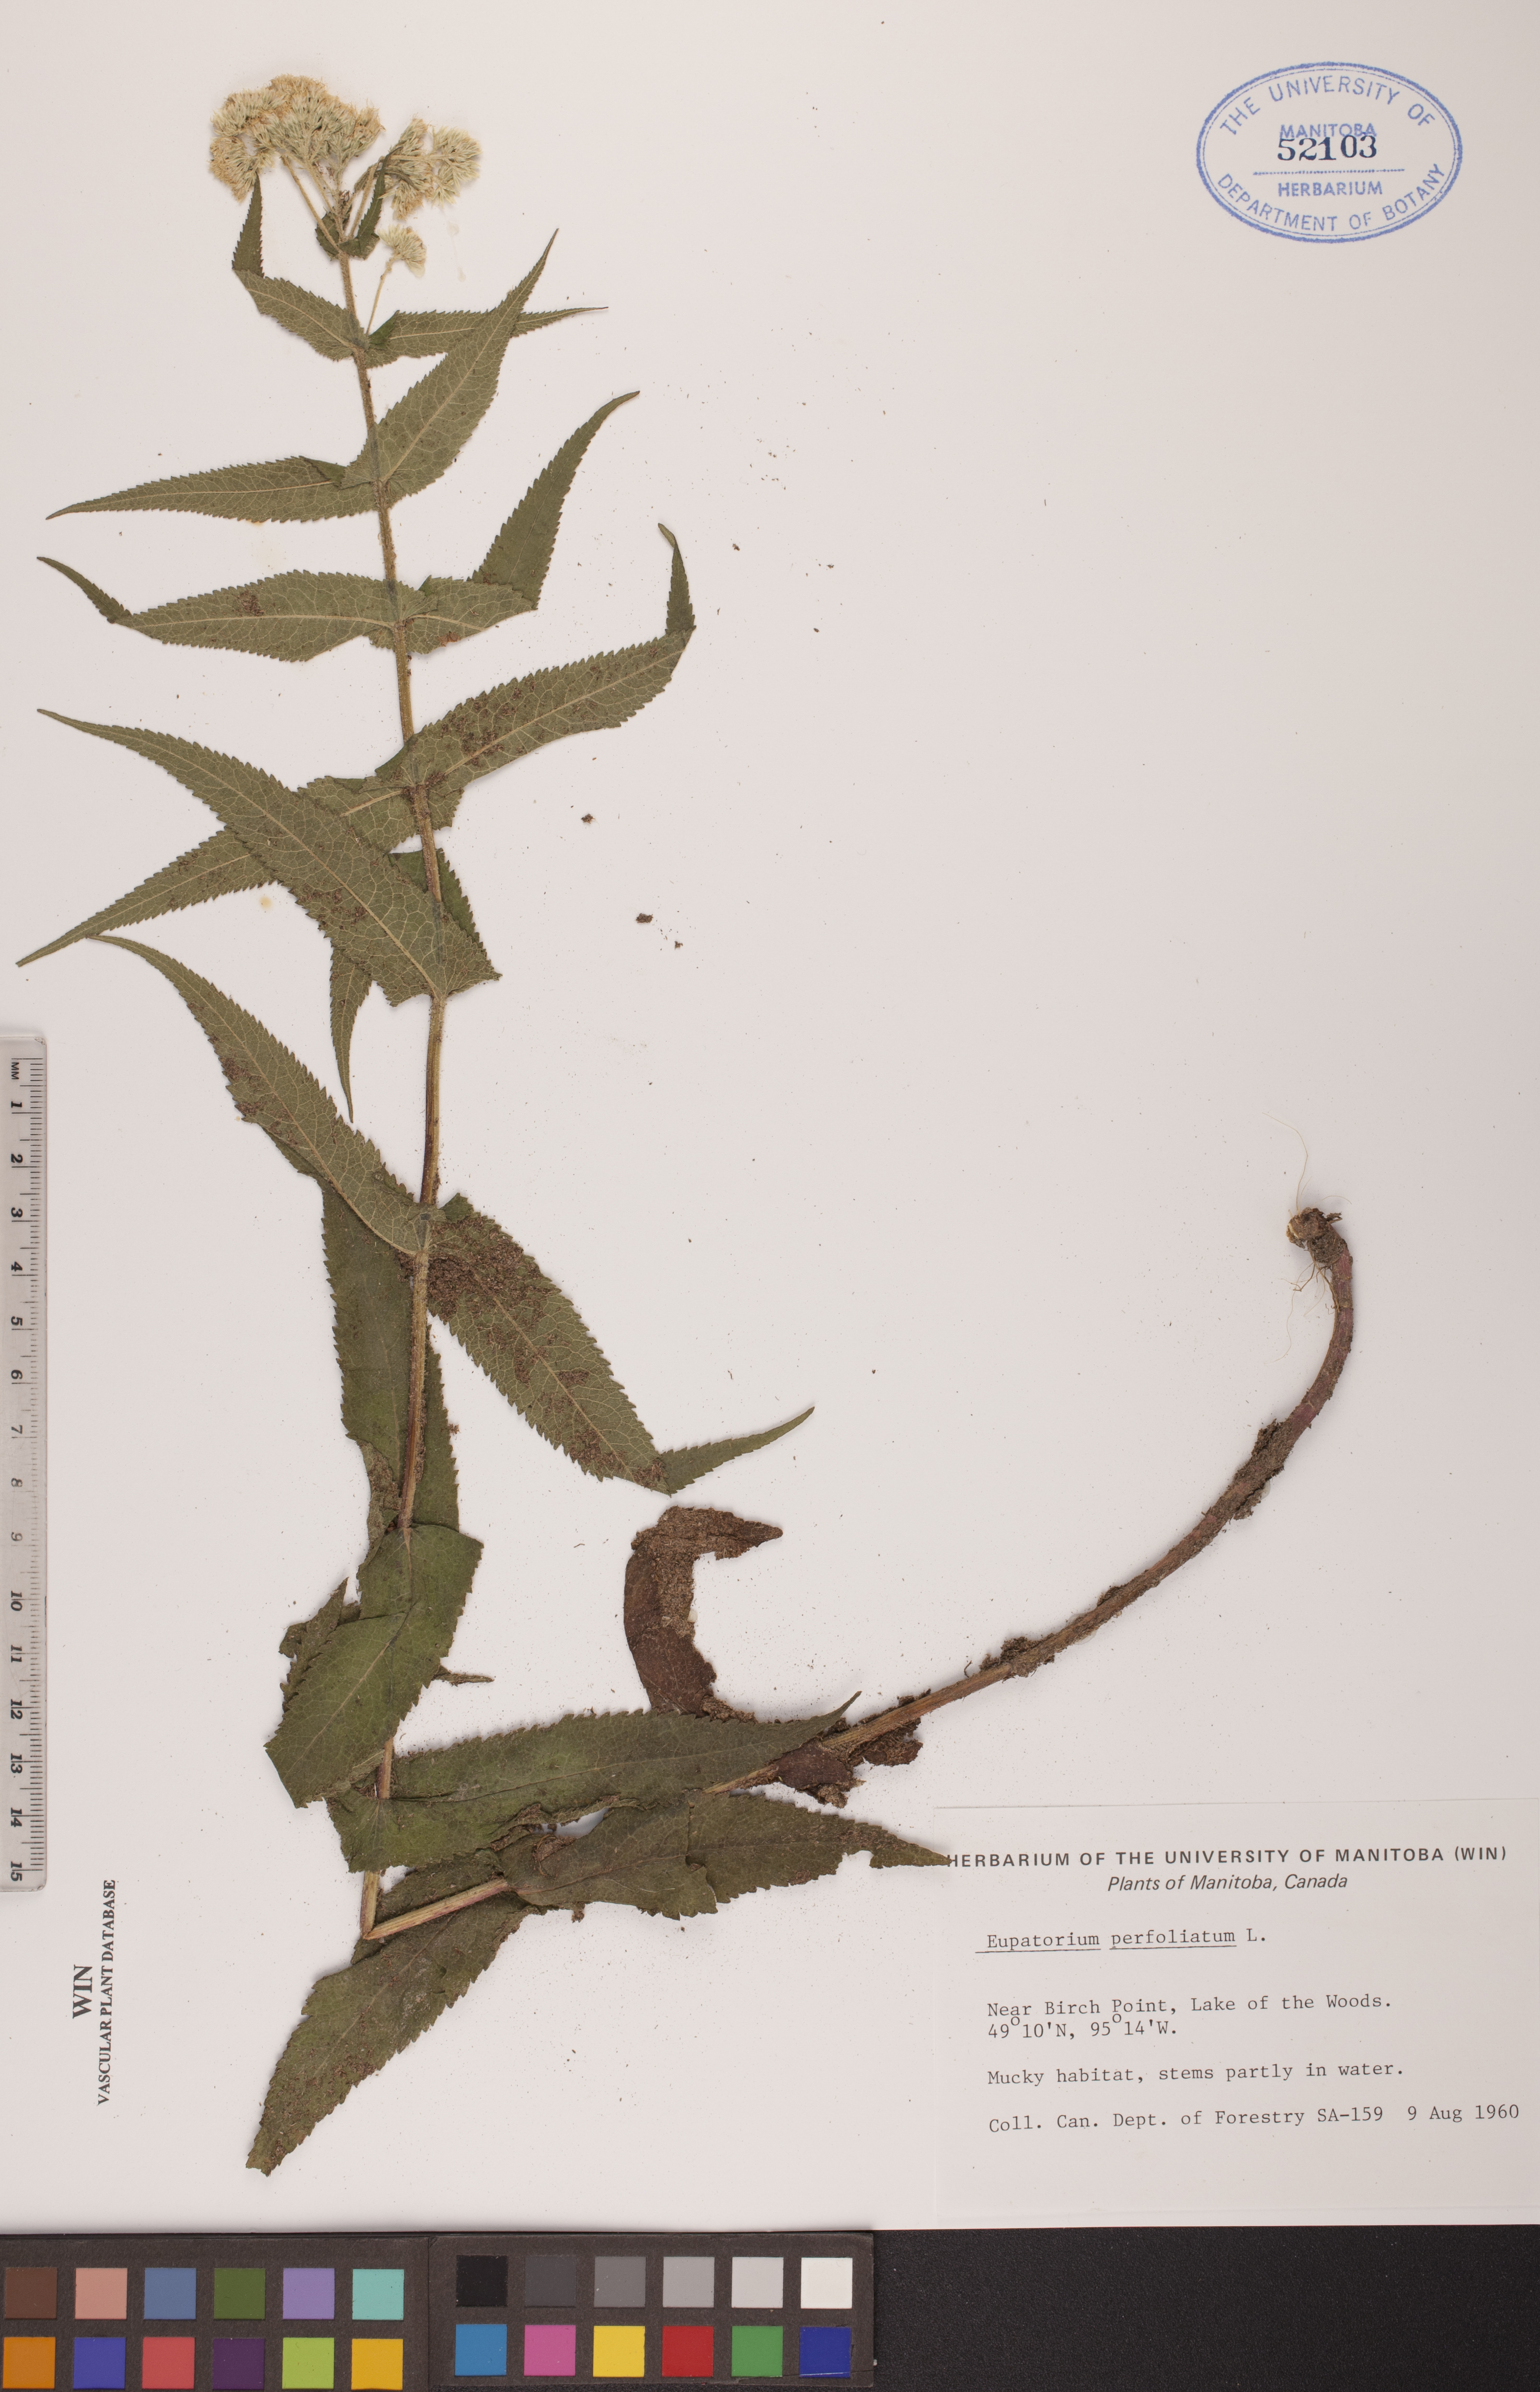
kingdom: Plantae
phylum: Tracheophyta
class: Magnoliopsida
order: Asterales
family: Asteraceae
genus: Eupatorium
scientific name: Eupatorium perfoliatum
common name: Boneset
